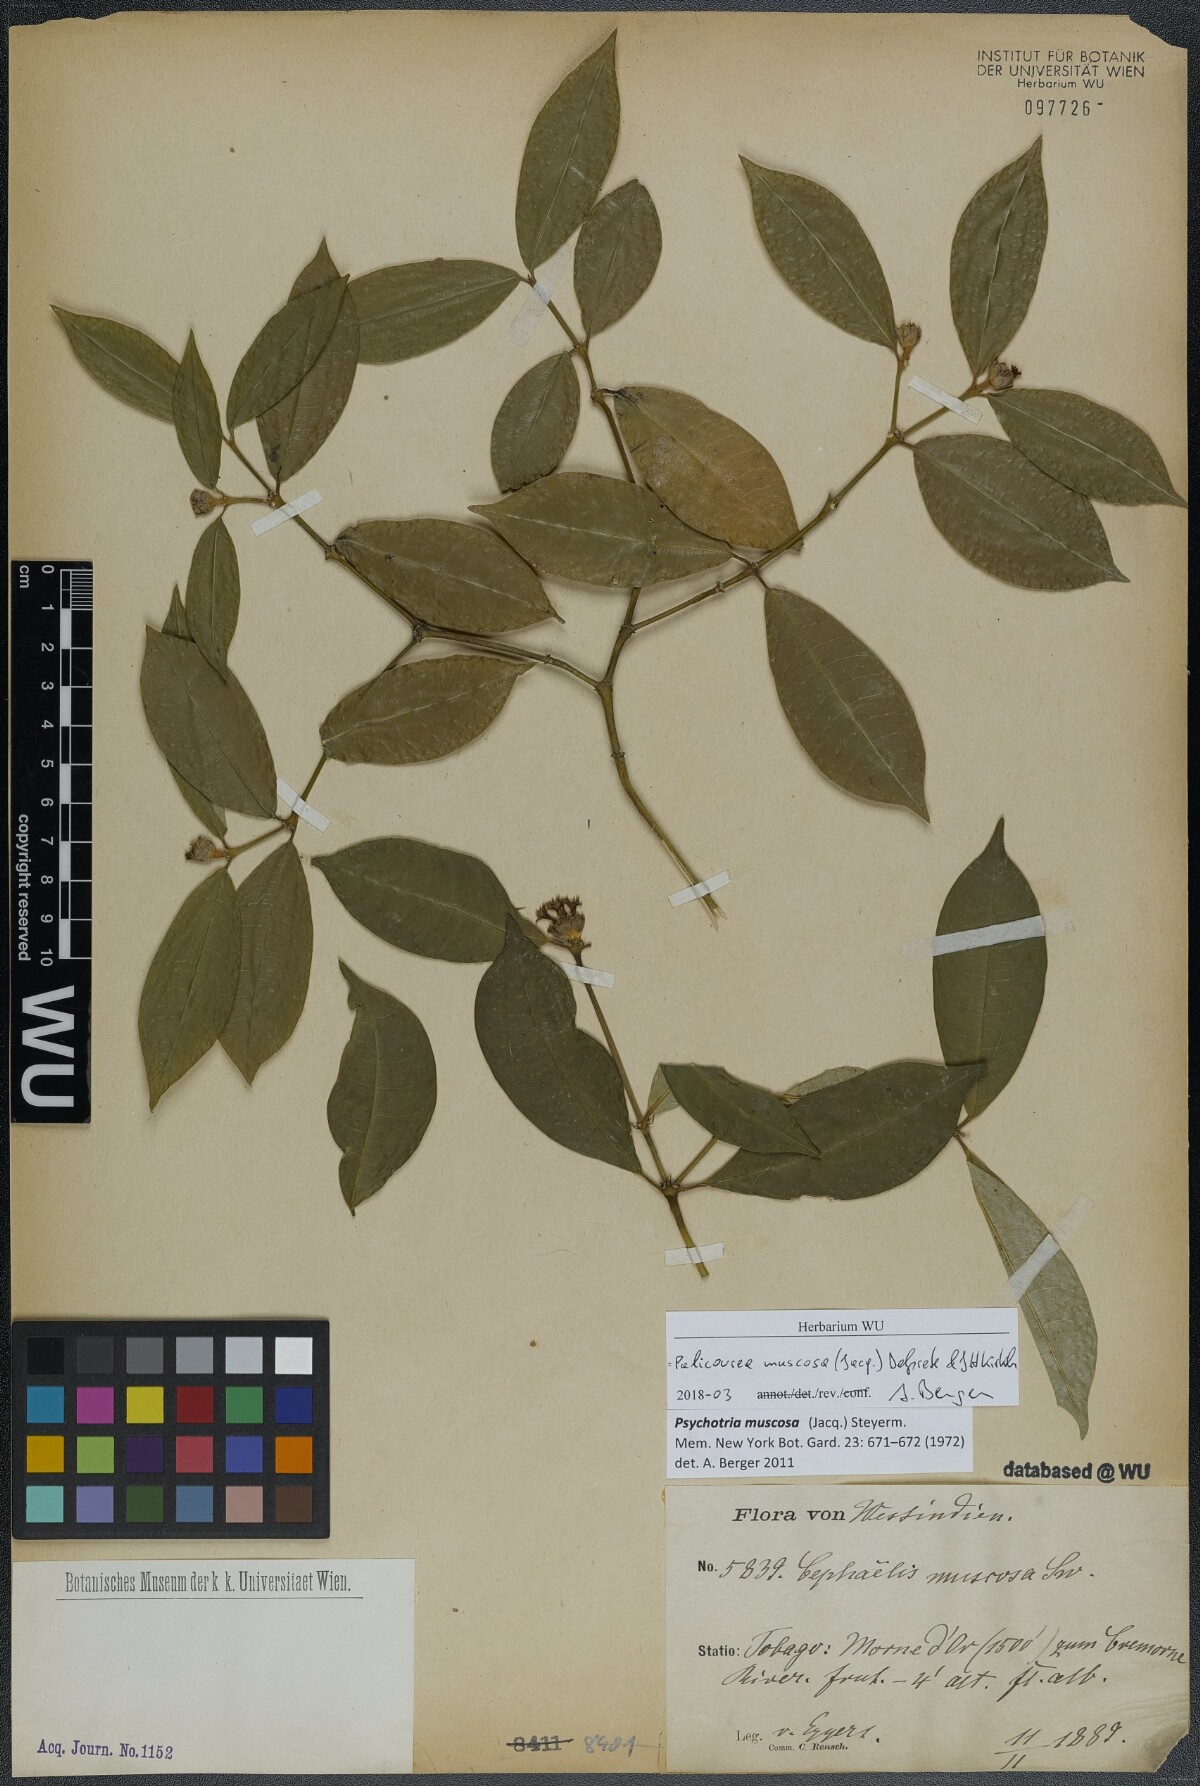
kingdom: Plantae
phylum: Tracheophyta
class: Magnoliopsida
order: Gentianales
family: Rubiaceae
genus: Palicourea
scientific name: Palicourea muscosa
